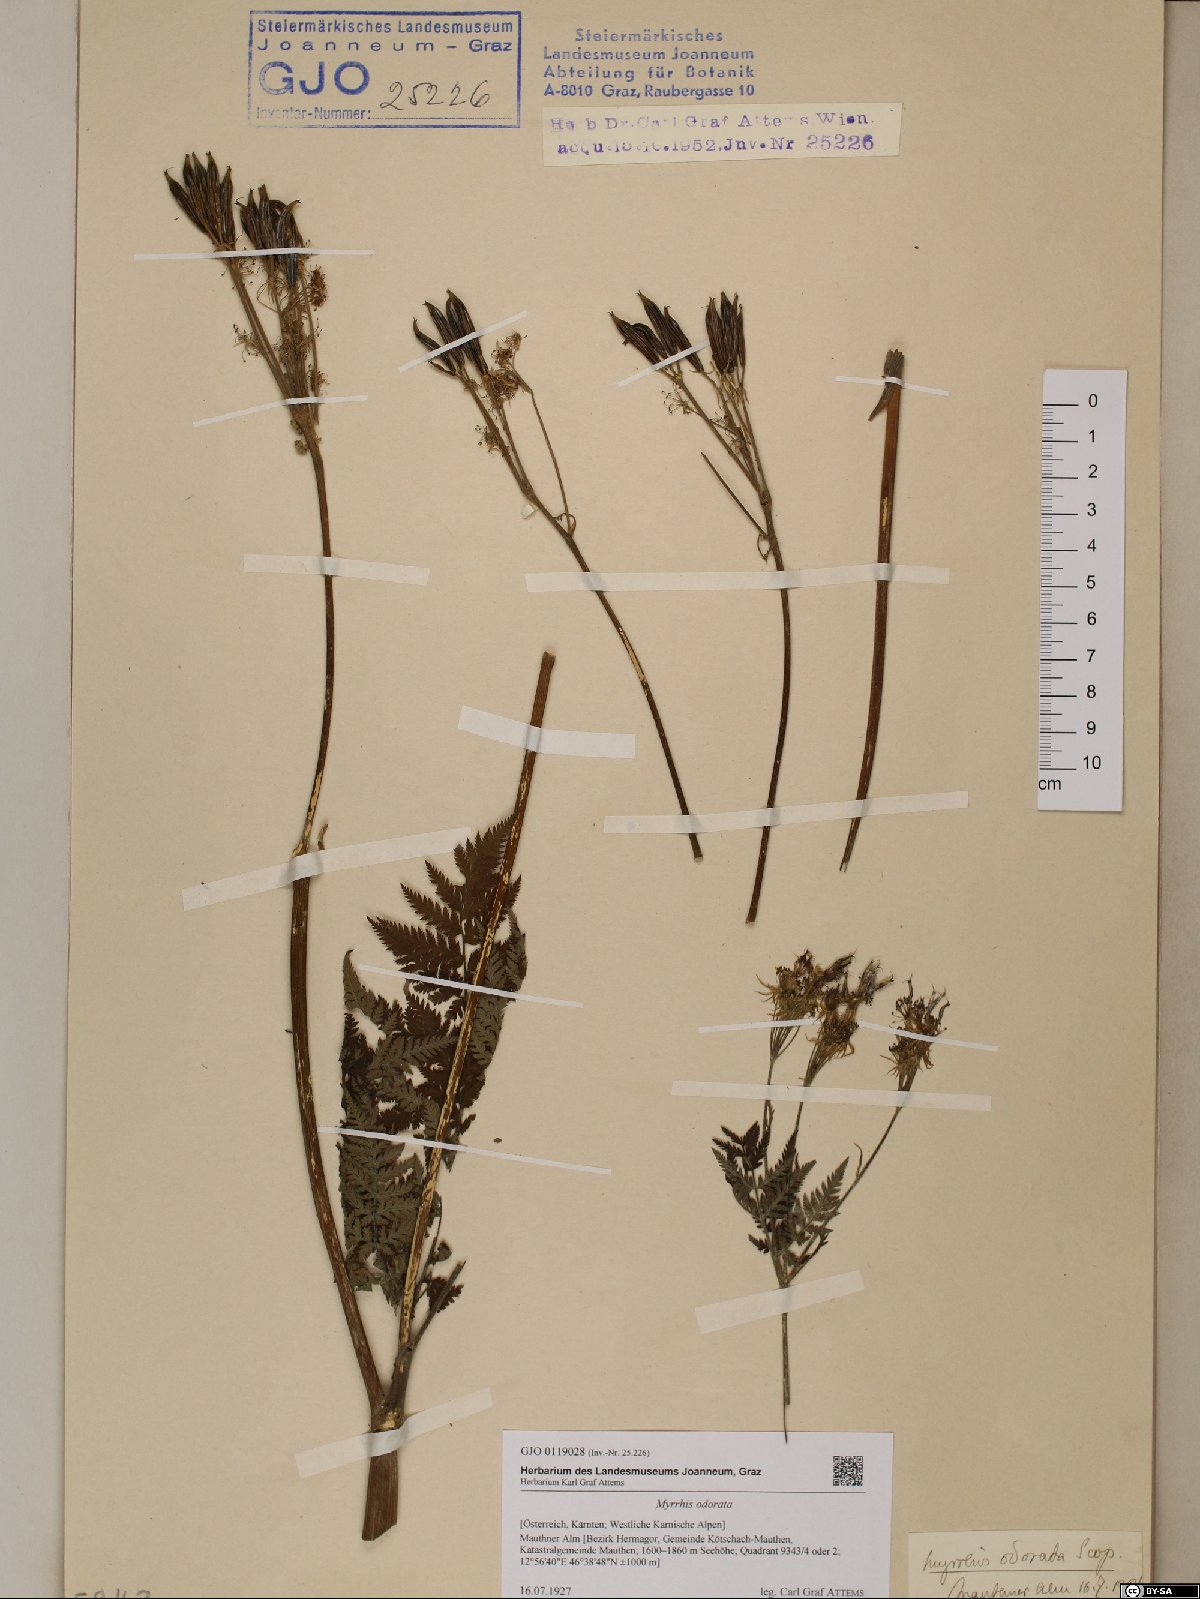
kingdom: Plantae
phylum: Tracheophyta
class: Magnoliopsida
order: Apiales
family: Apiaceae
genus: Myrrhis
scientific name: Myrrhis odorata
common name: Sweet cicely
